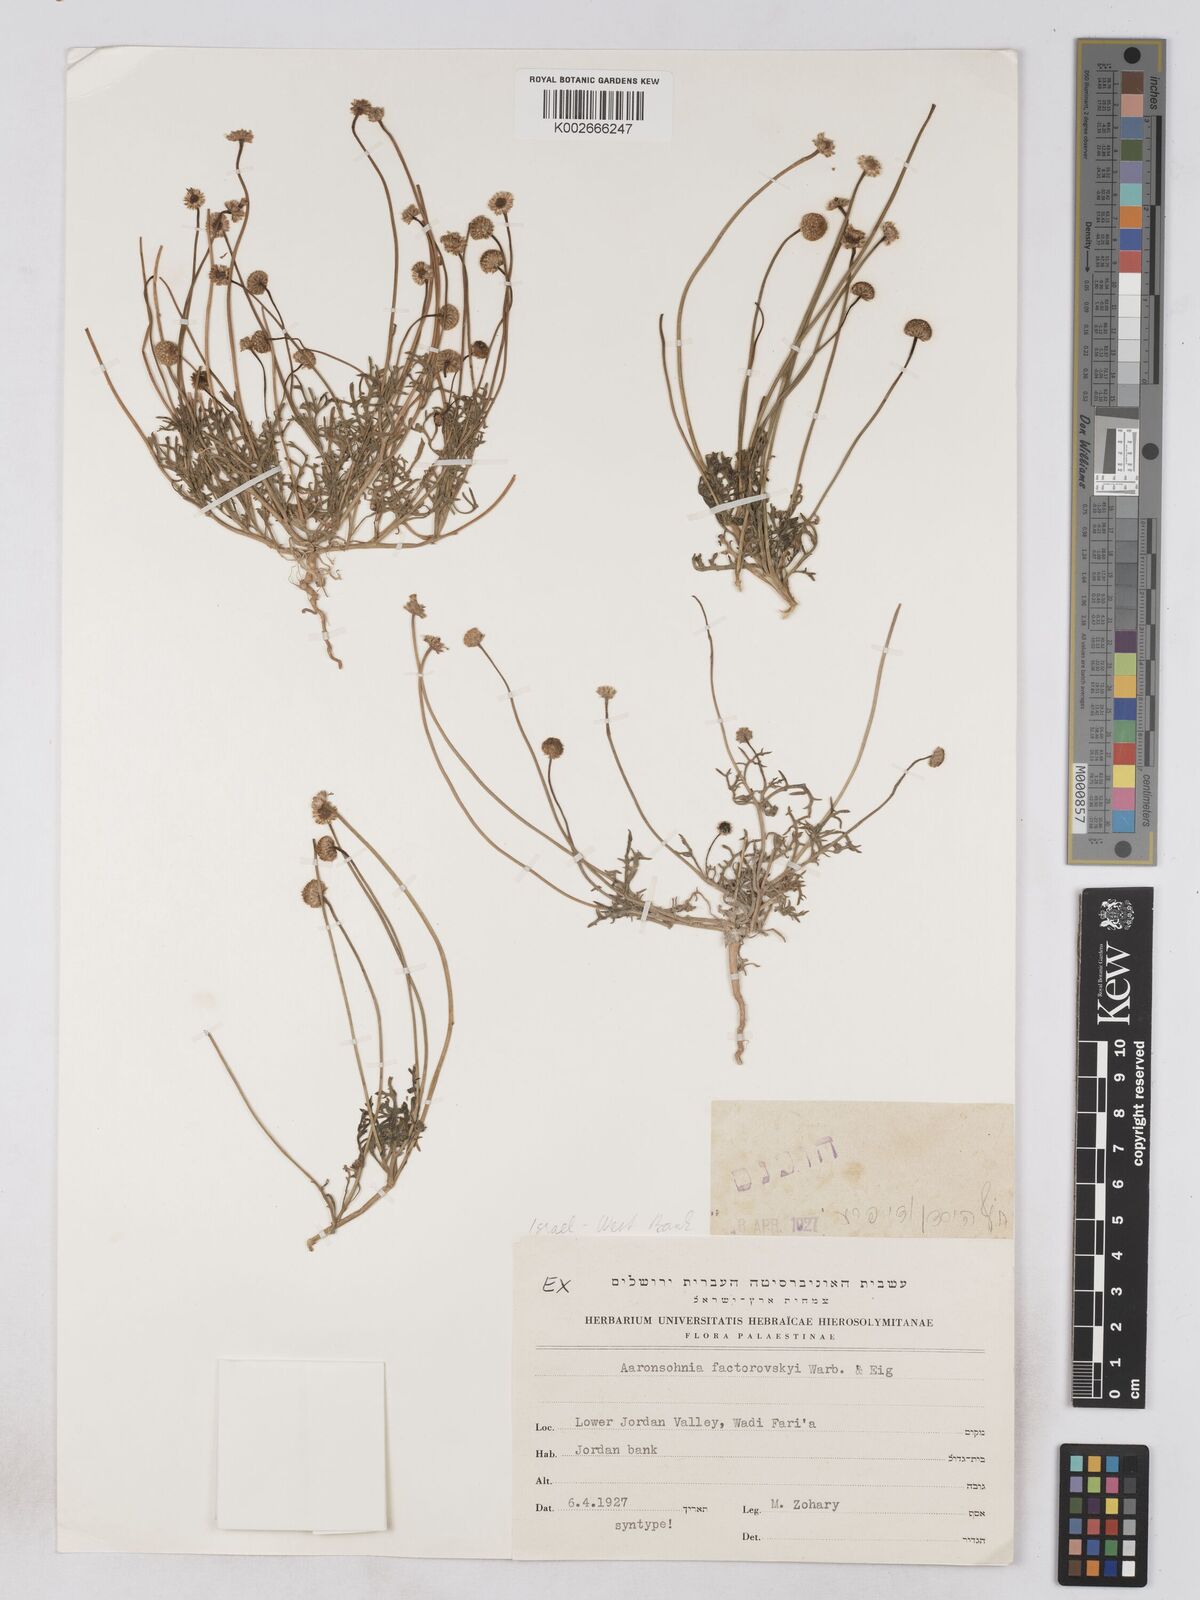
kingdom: Plantae
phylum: Tracheophyta
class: Magnoliopsida
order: Asterales
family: Asteraceae
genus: Otoglyphis
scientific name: Otoglyphis factorovskyi
